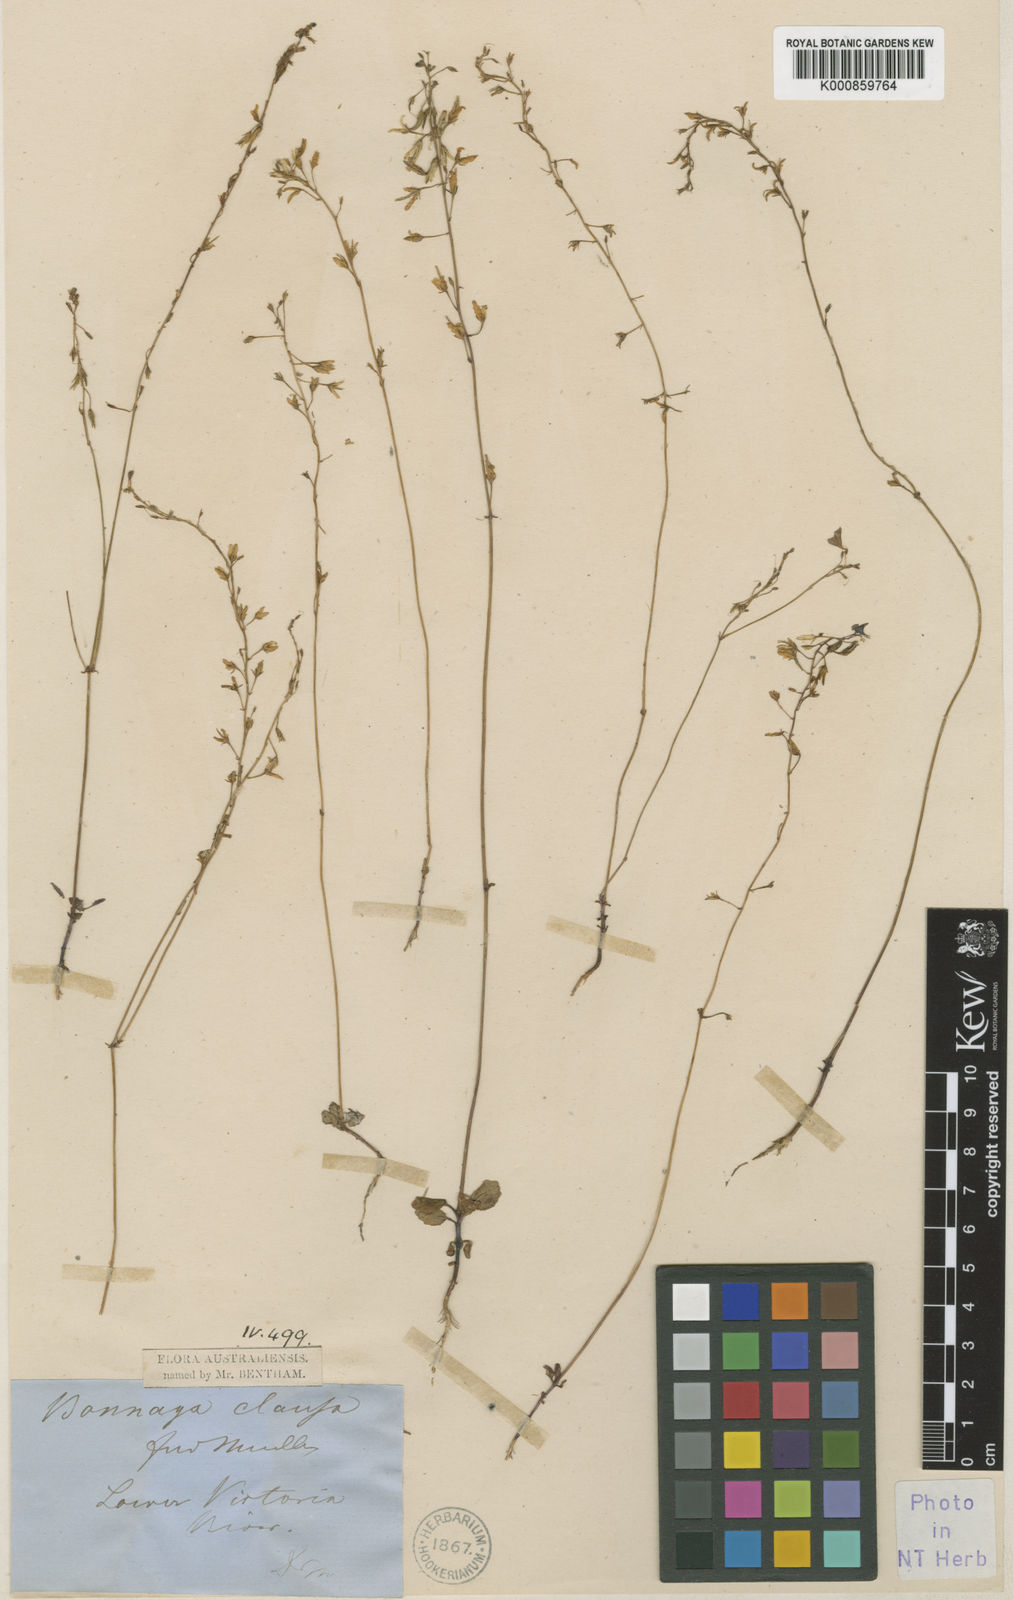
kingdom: Plantae
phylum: Tracheophyta
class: Magnoliopsida
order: Lamiales
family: Linderniaceae
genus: Vandellia
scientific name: Vandellia clausa
